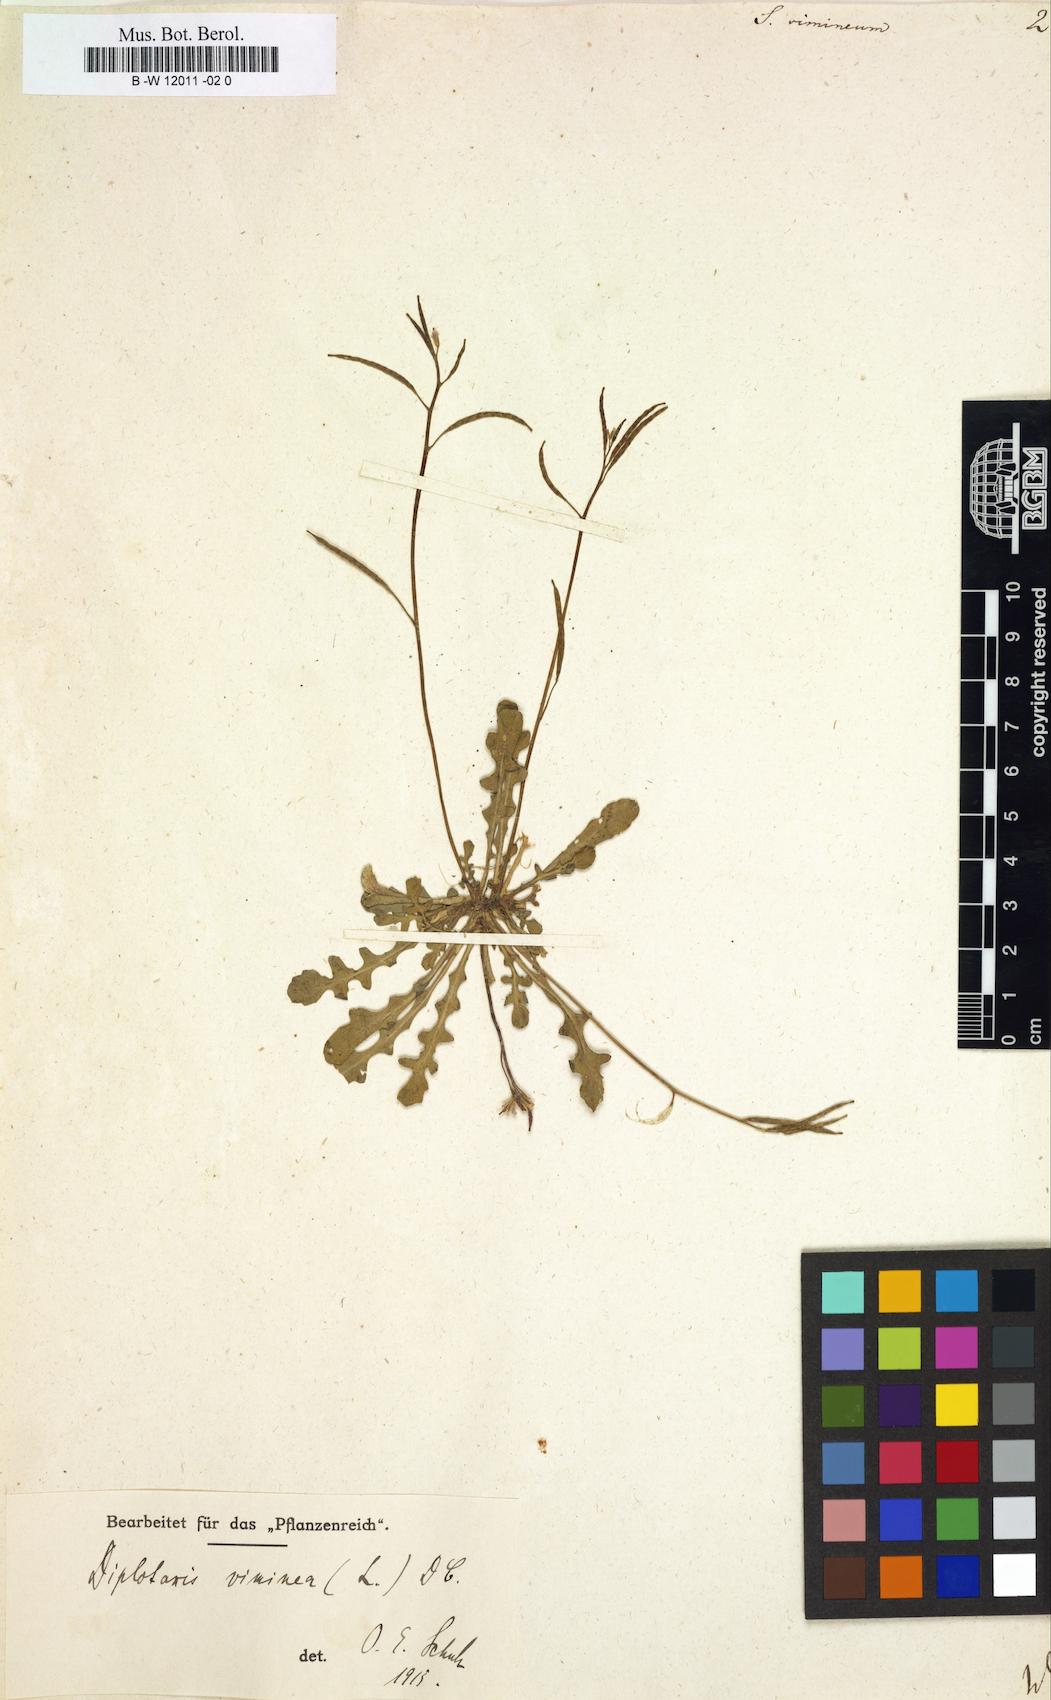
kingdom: Plantae
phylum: Tracheophyta
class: Magnoliopsida
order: Brassicales
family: Brassicaceae
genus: Sisymbrium
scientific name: Sisymbrium vimineum
